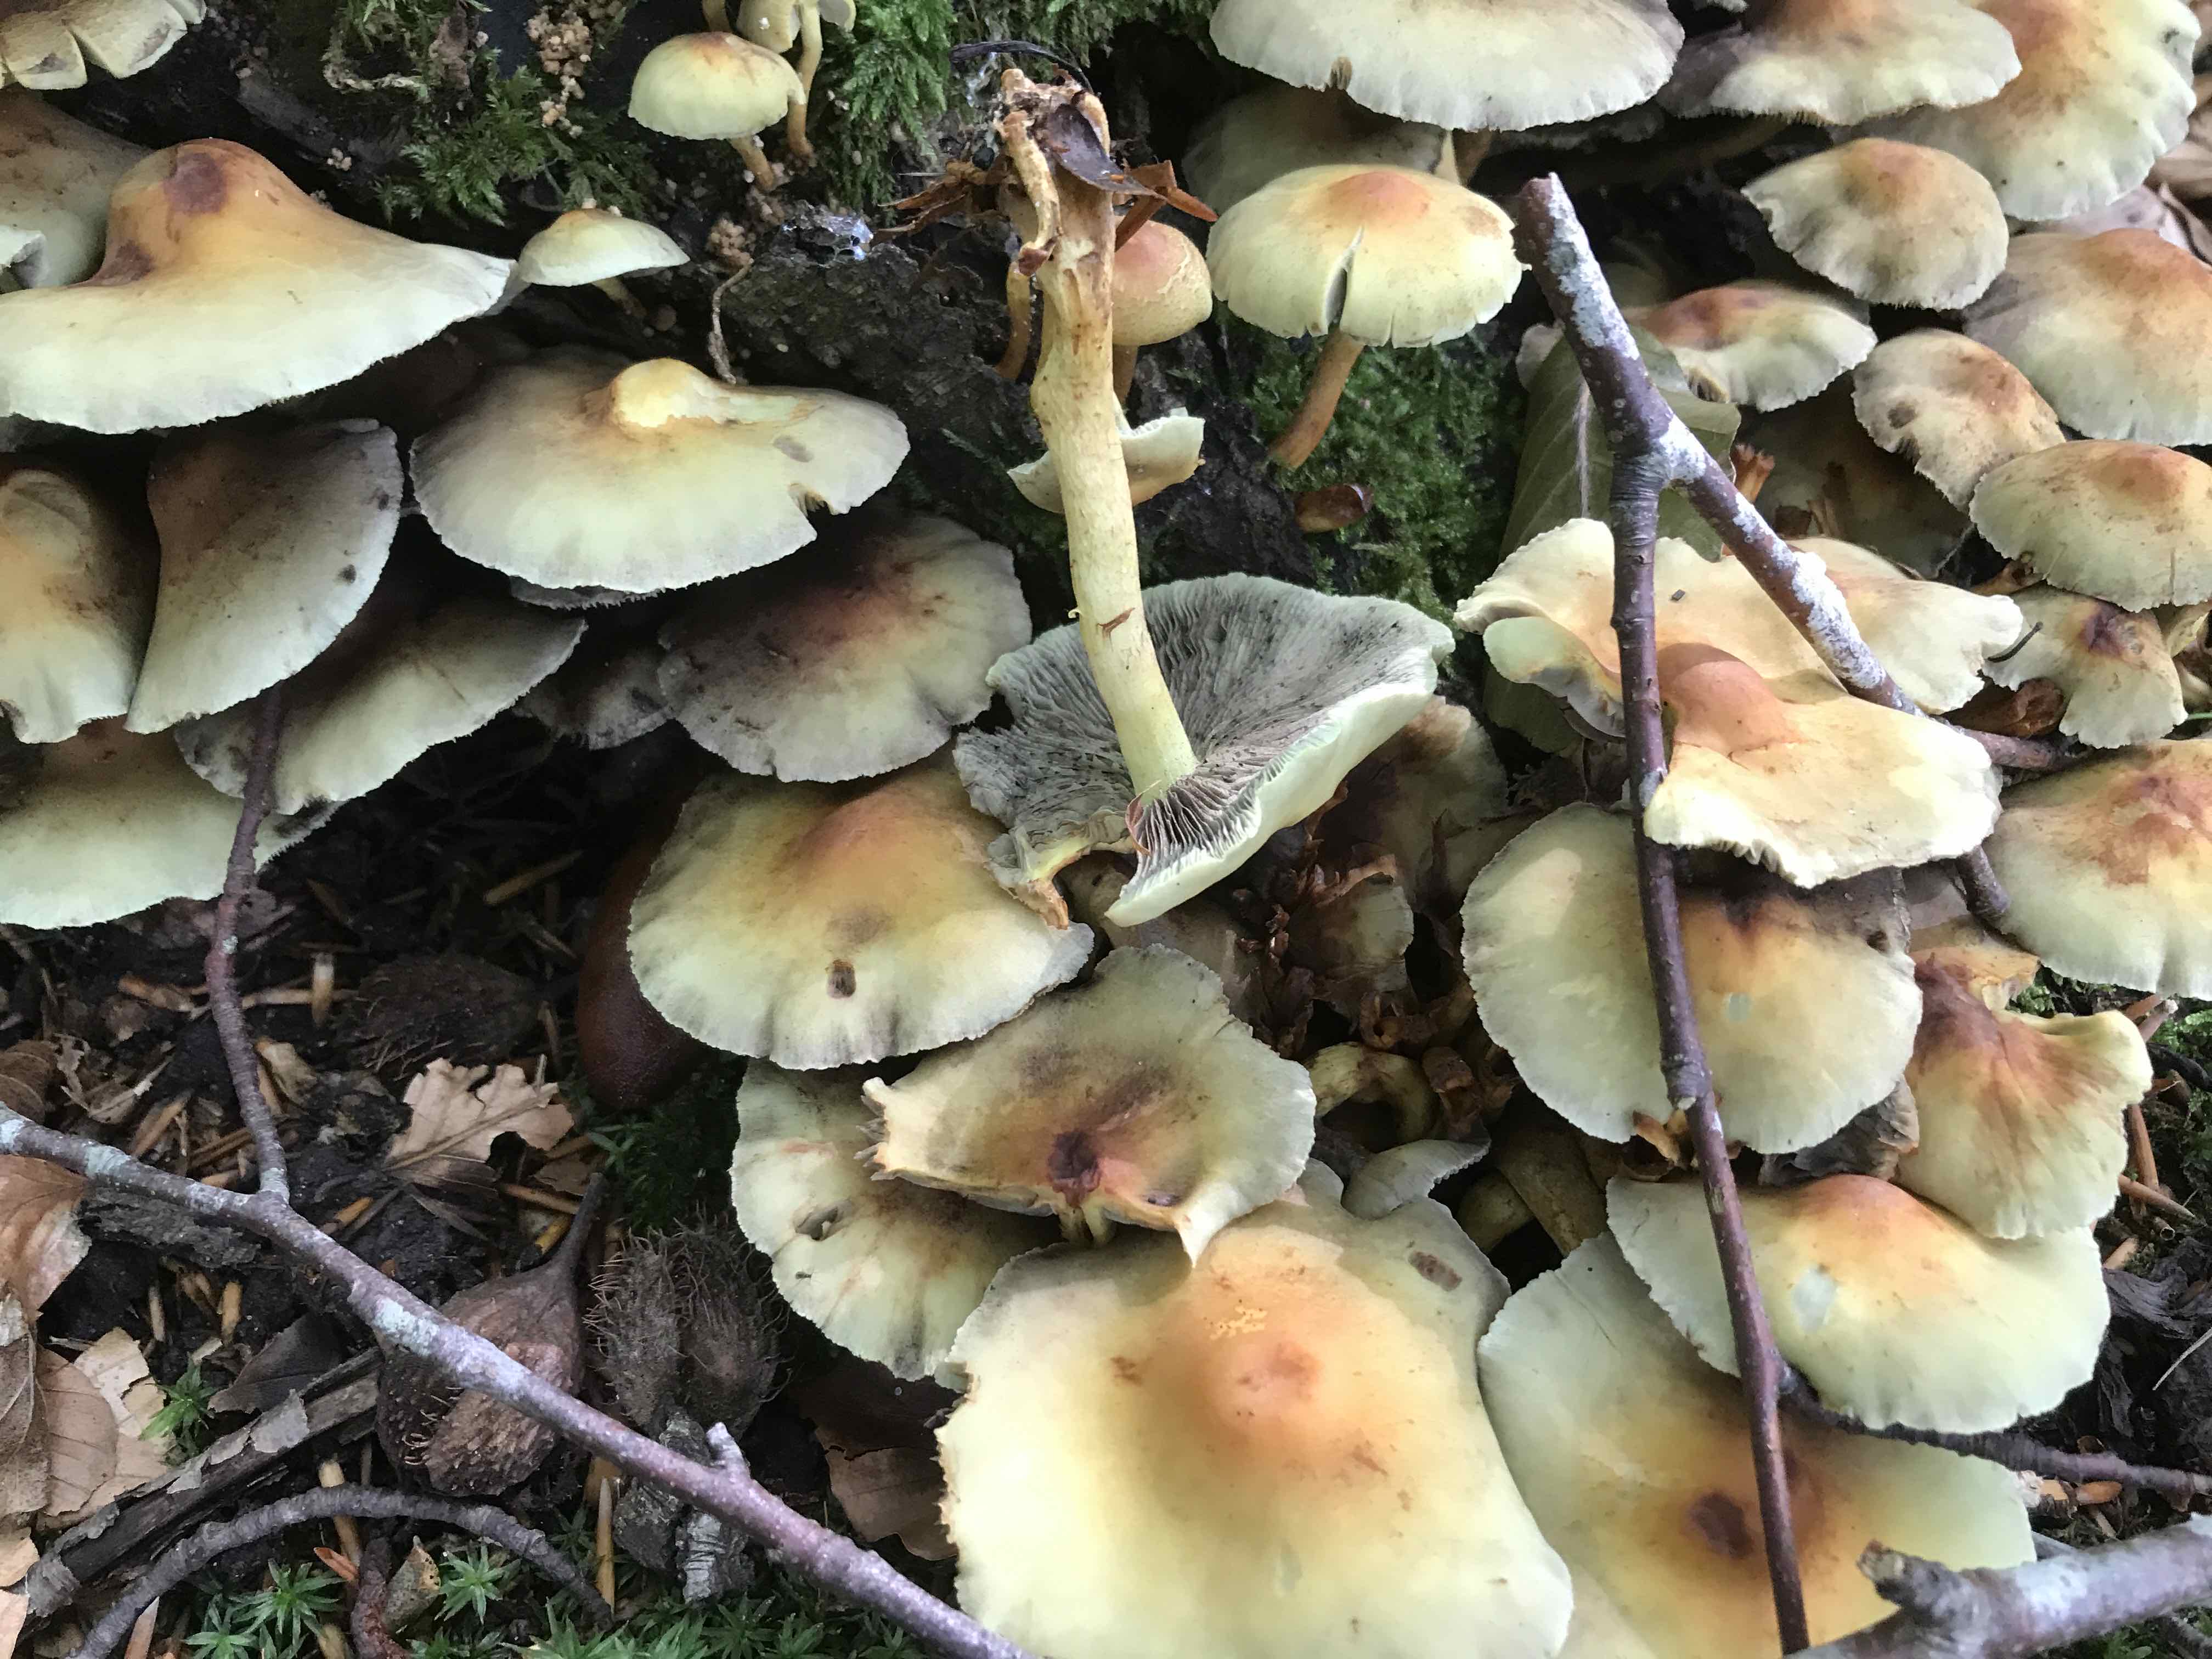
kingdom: Fungi
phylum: Basidiomycota
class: Agaricomycetes
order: Agaricales
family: Strophariaceae
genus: Hypholoma
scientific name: Hypholoma fasciculare
